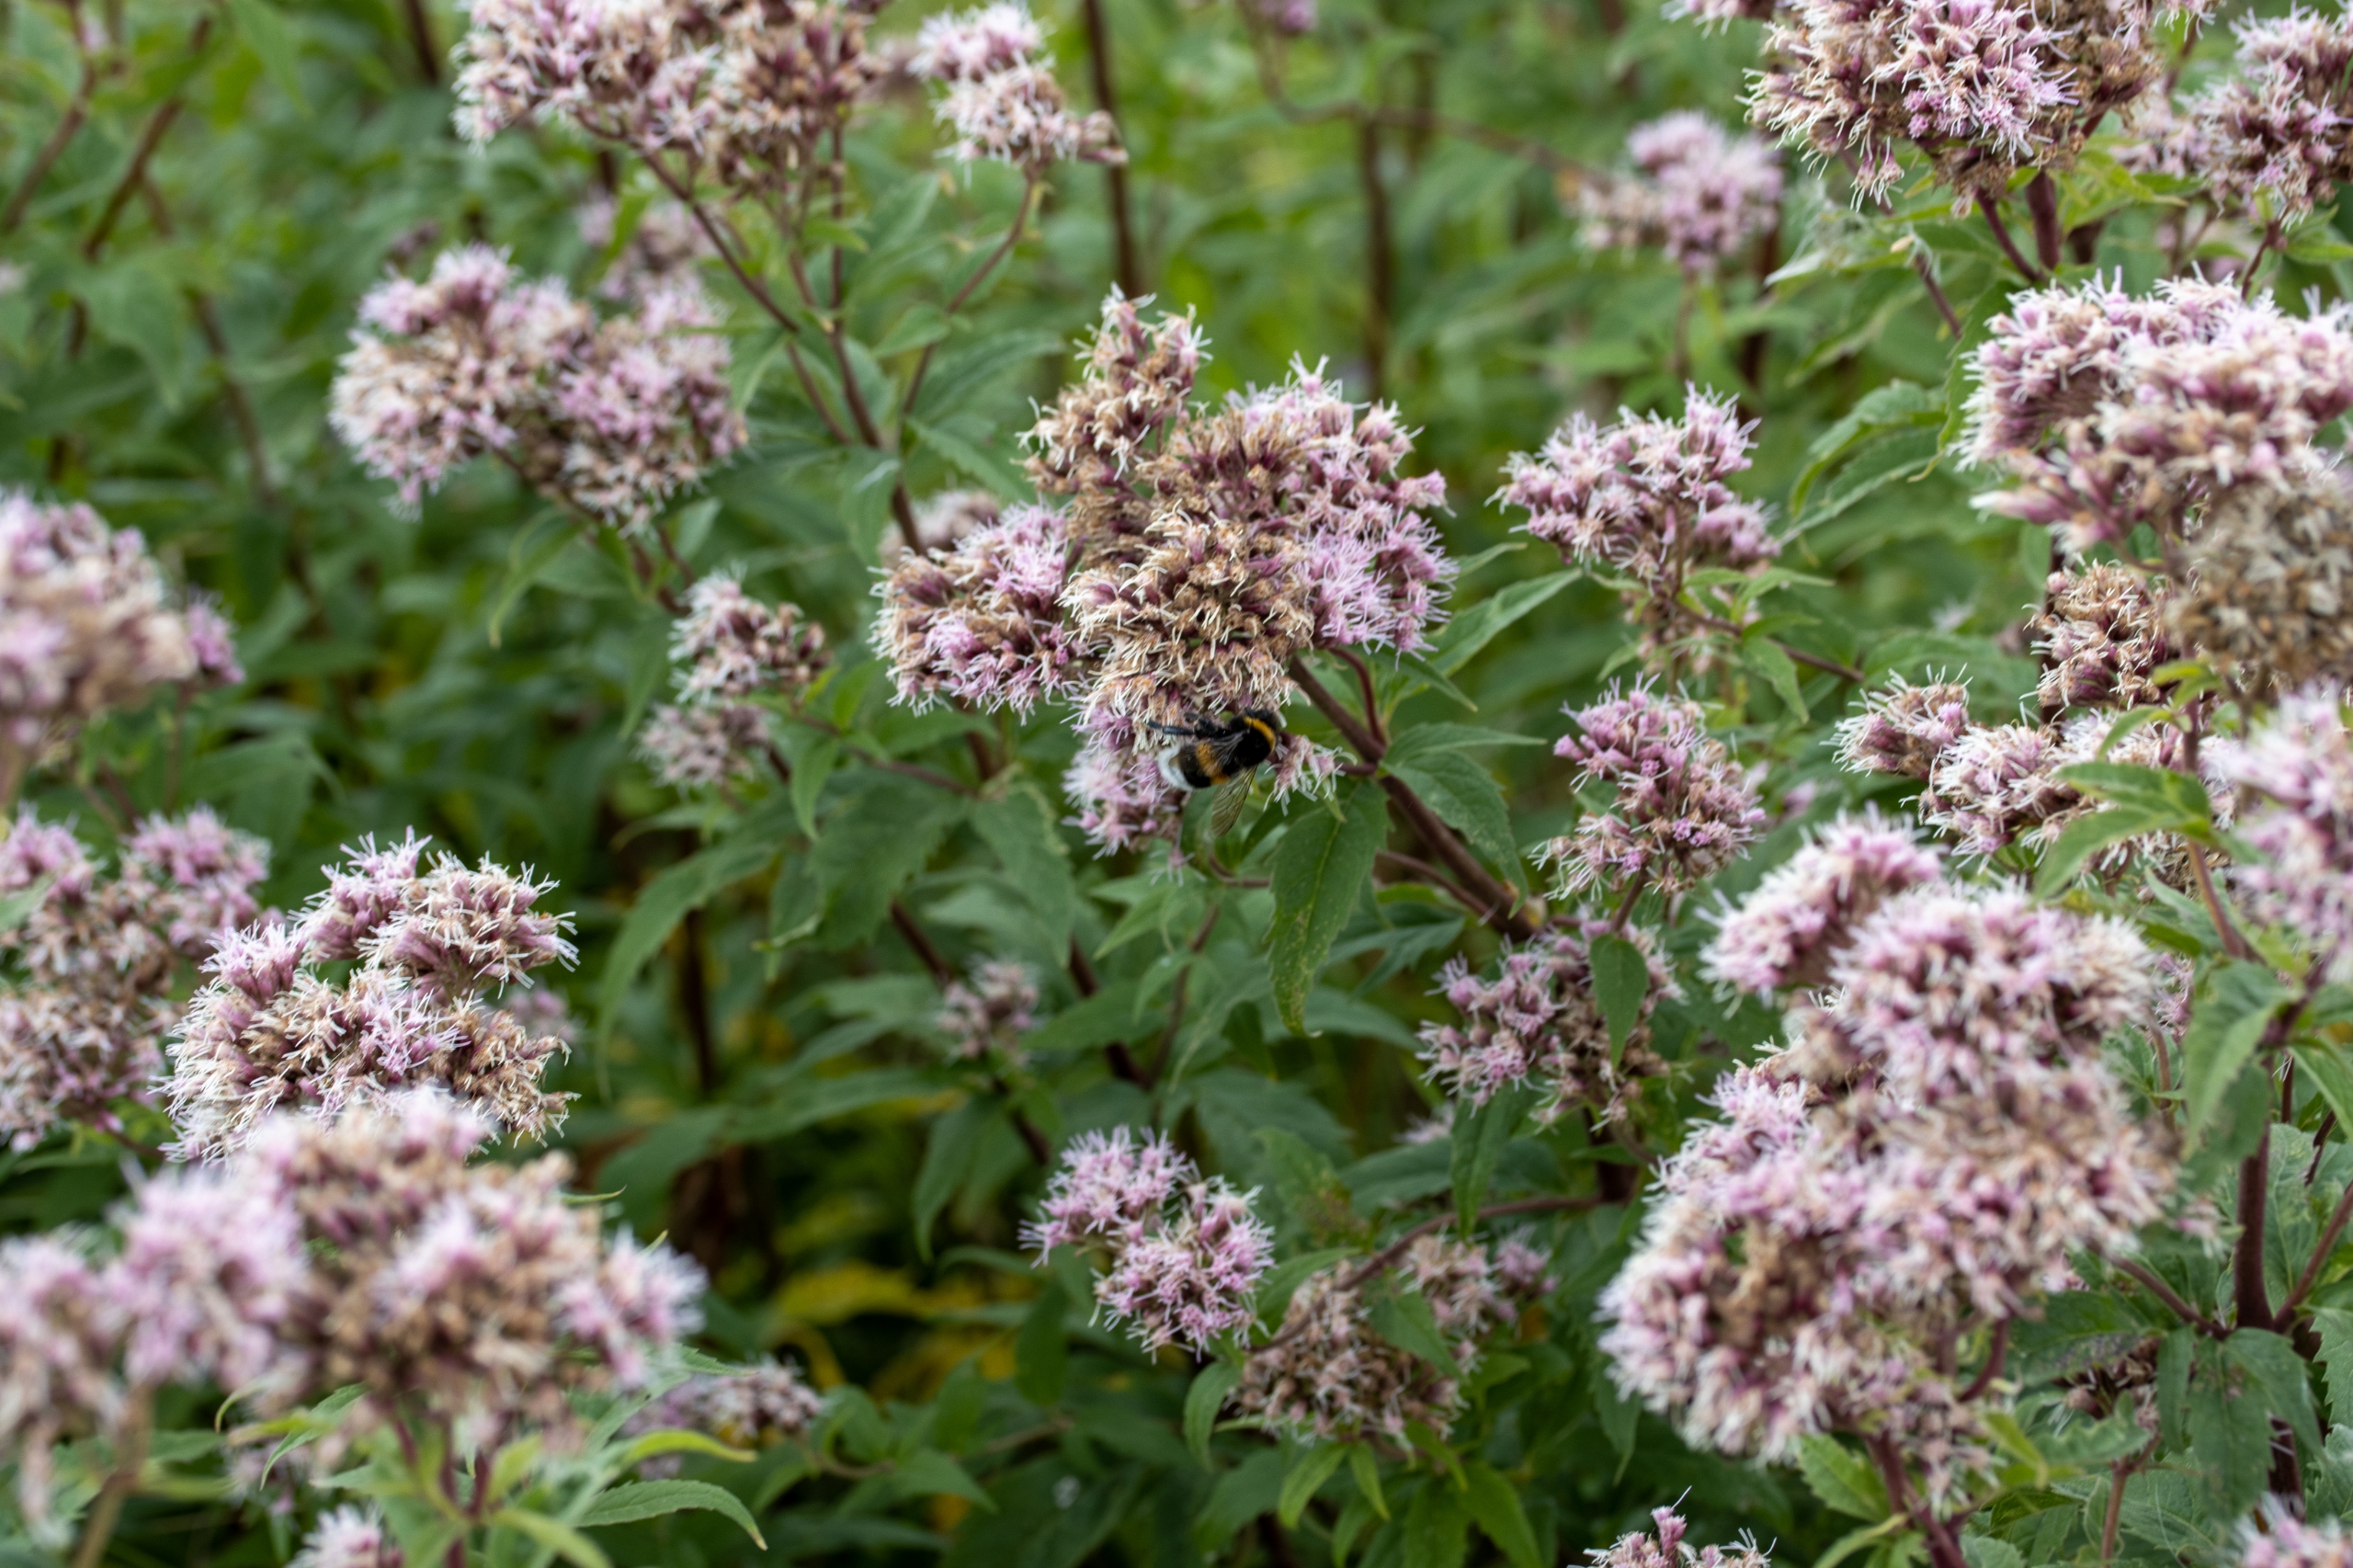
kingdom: Plantae
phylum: Tracheophyta
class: Magnoliopsida
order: Asterales
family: Asteraceae
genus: Eupatorium
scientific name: Eupatorium cannabinum
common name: Hjortetrøst
